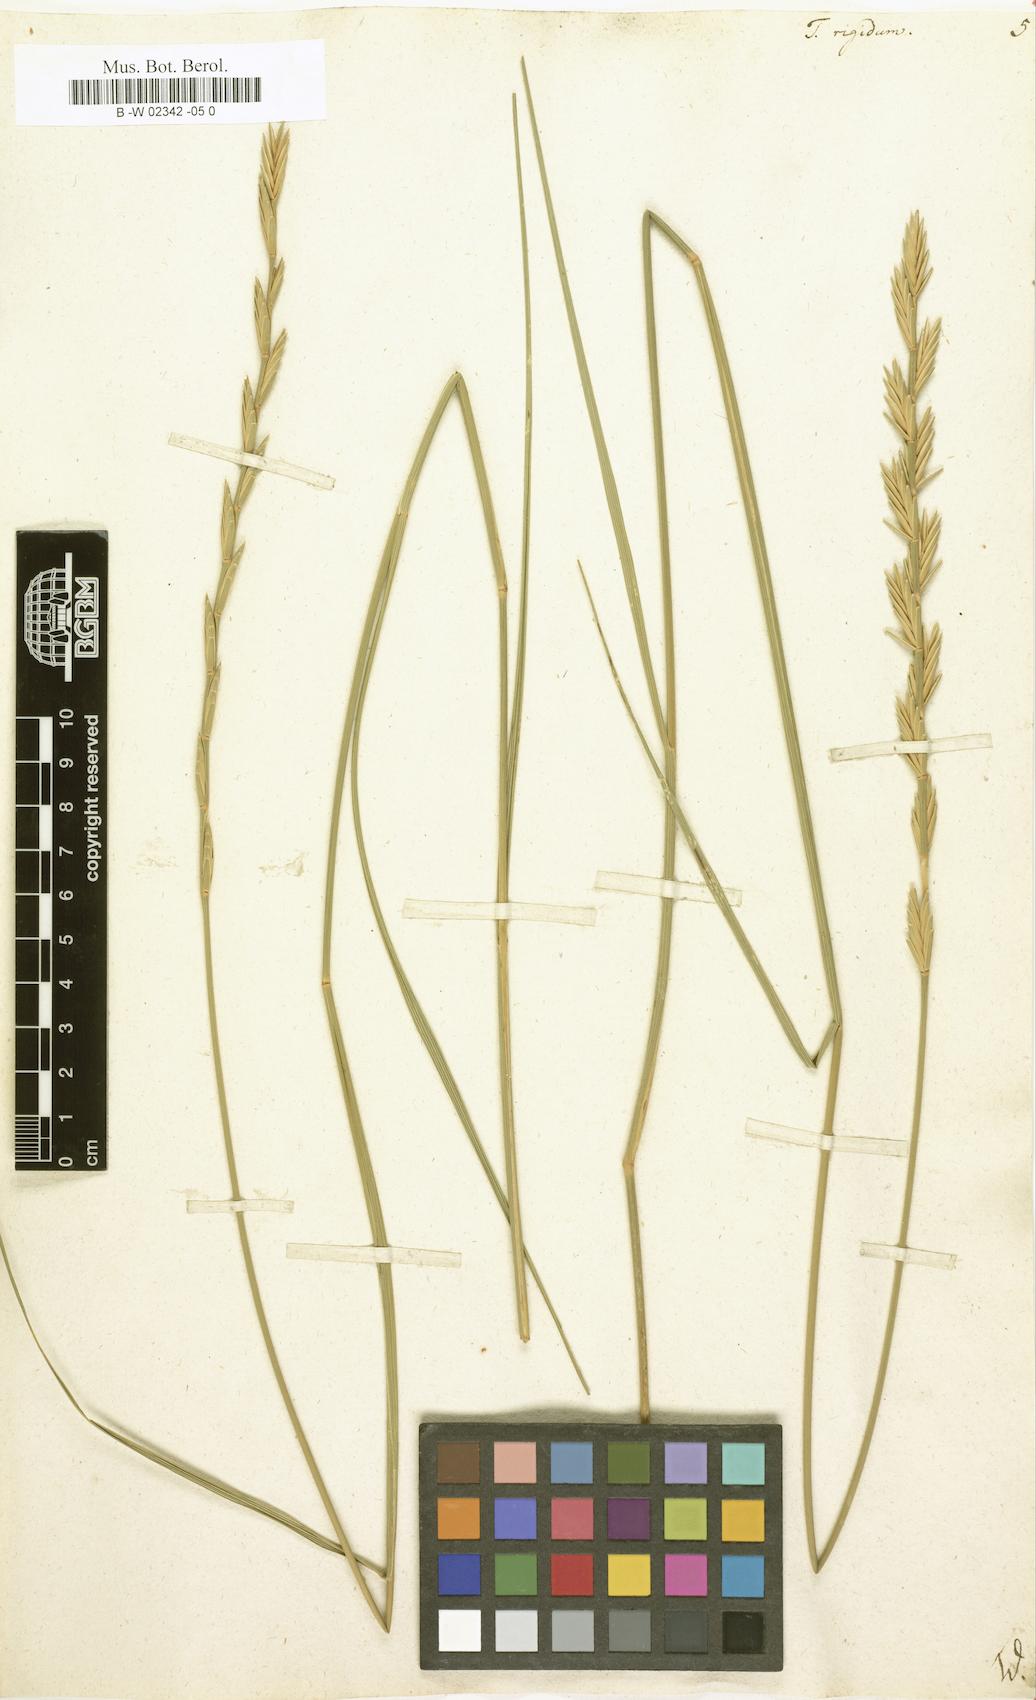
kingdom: Plantae
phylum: Tracheophyta
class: Liliopsida
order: Poales
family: Poaceae
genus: Thinopyrum
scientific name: Thinopyrum
